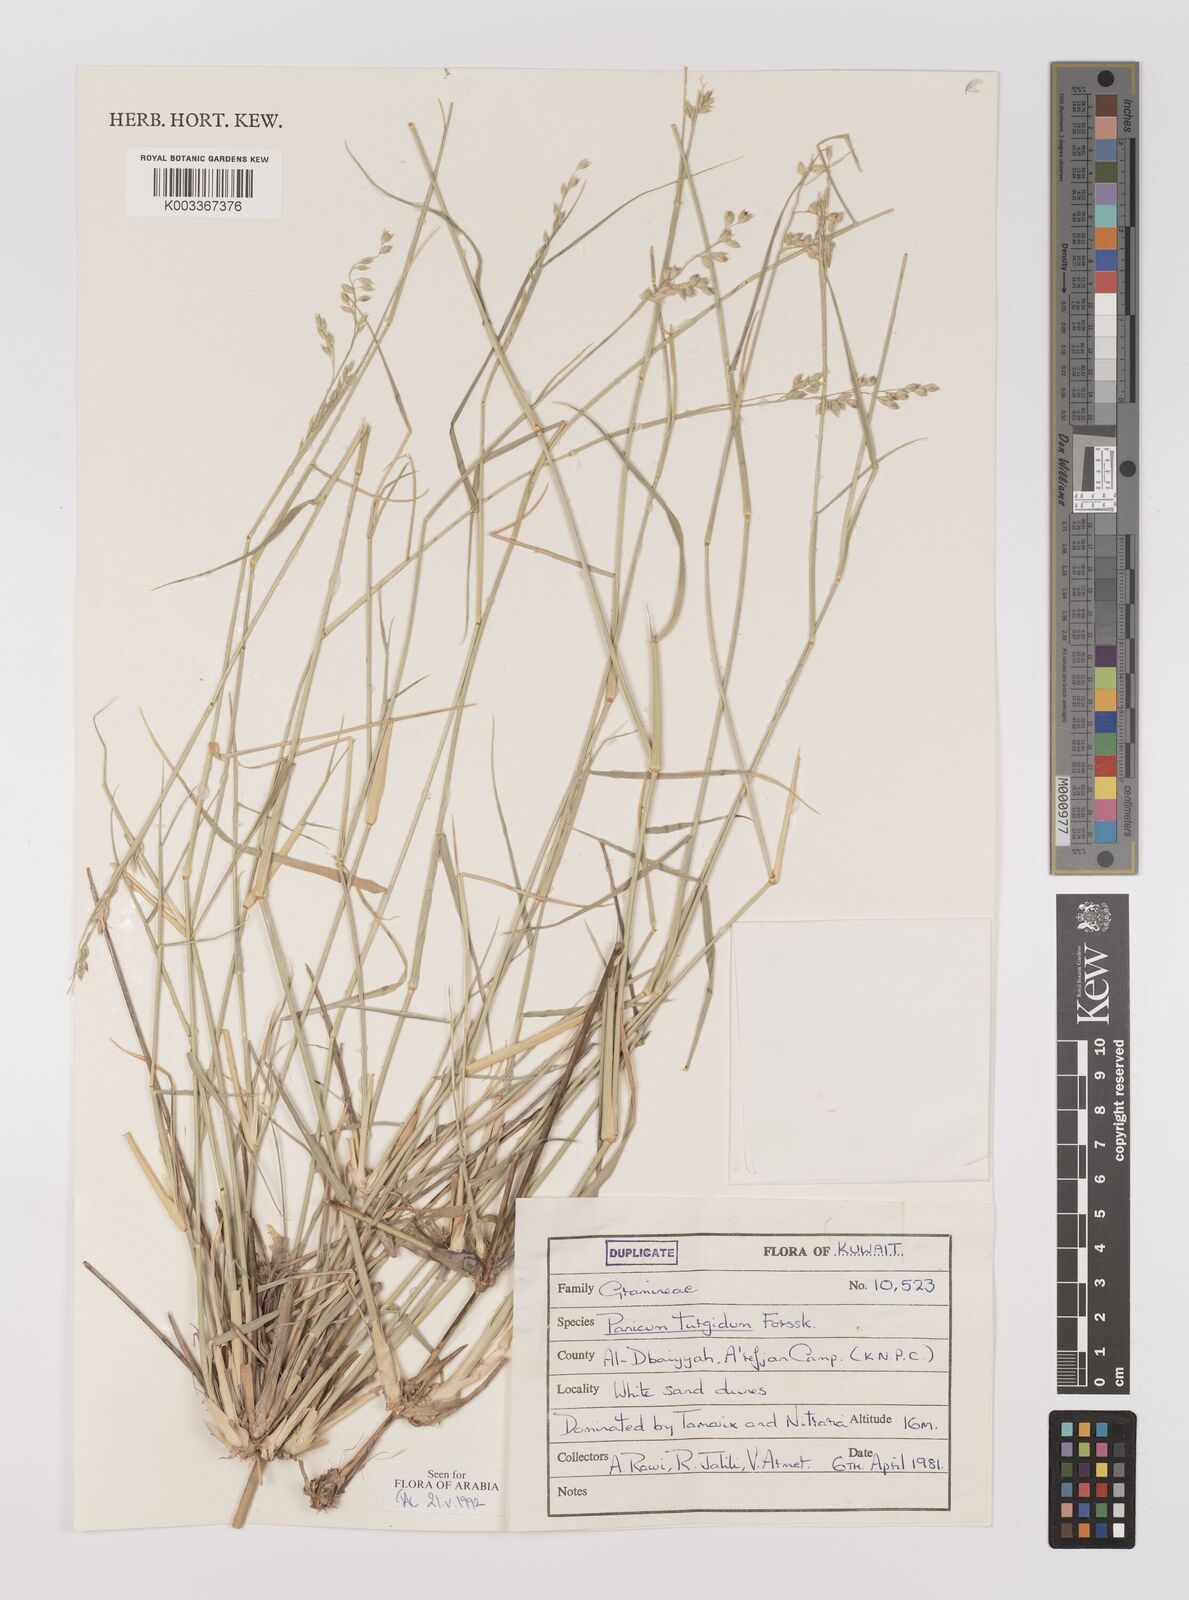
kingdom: Plantae
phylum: Tracheophyta
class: Liliopsida
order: Poales
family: Poaceae
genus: Panicum
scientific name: Panicum turgidum
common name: Desert grass
